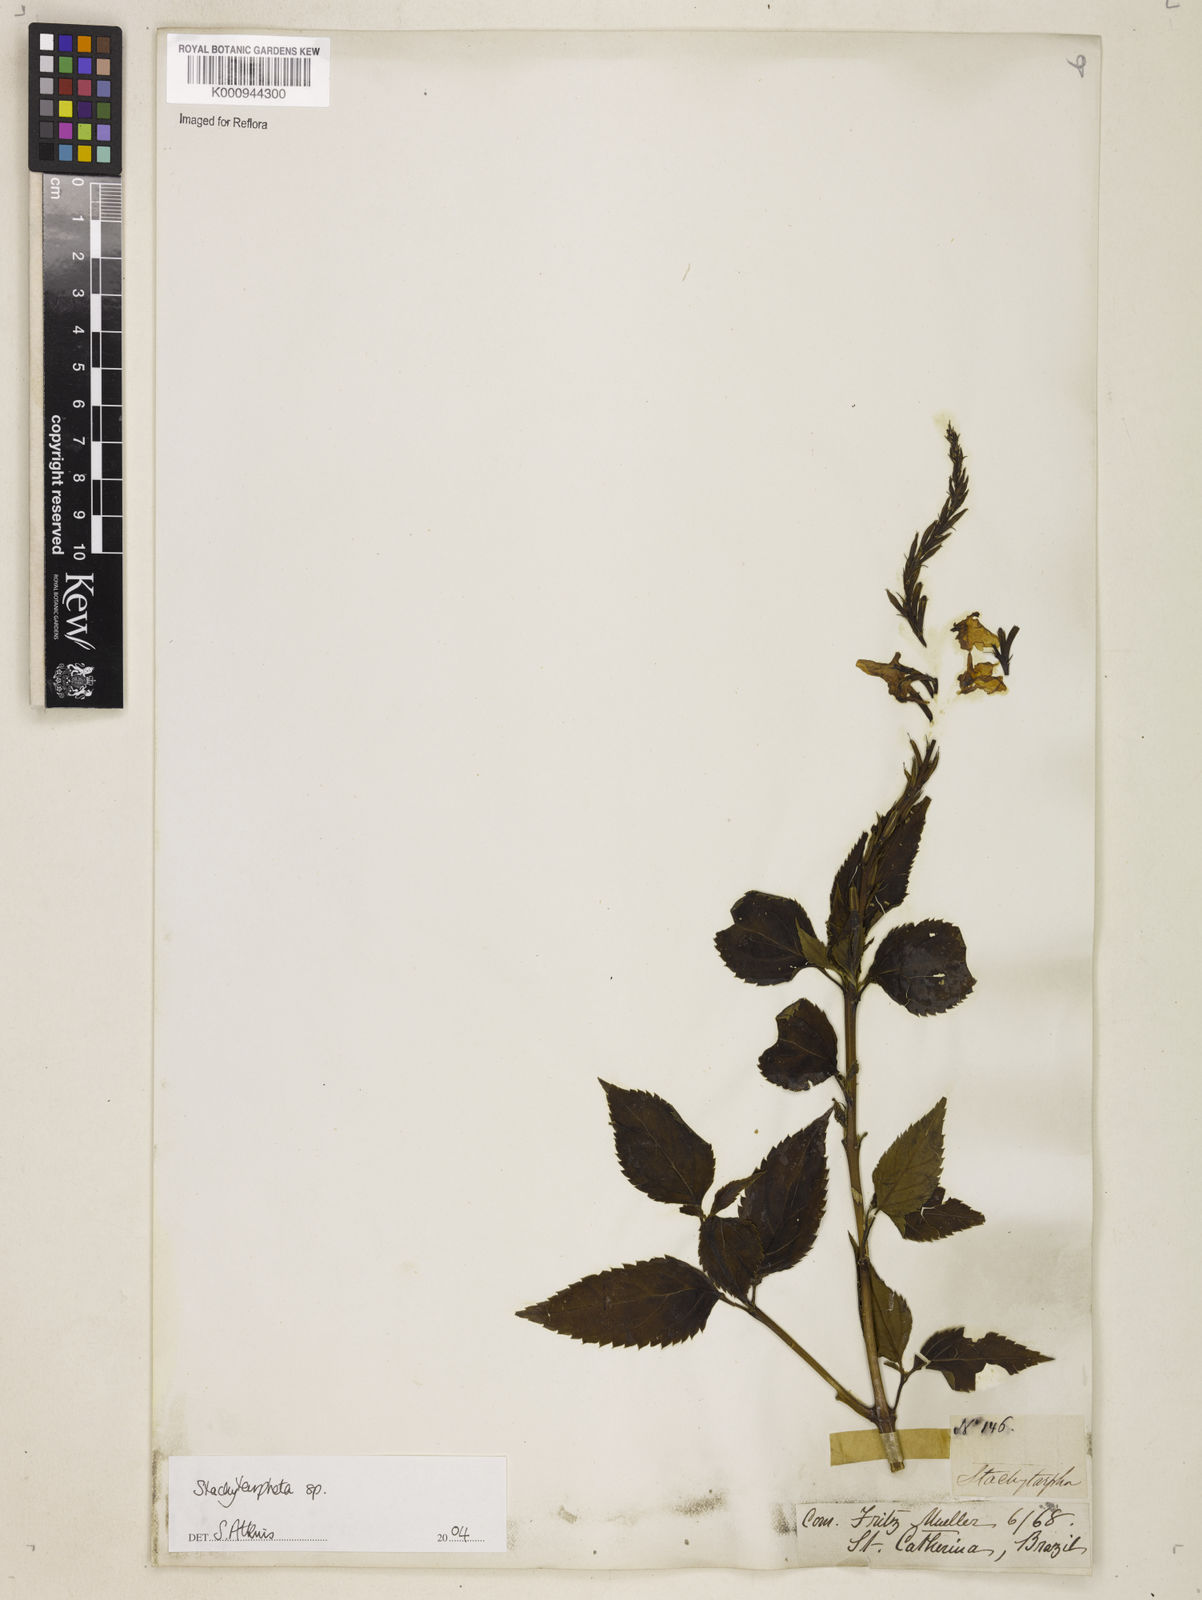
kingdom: Plantae
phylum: Tracheophyta
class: Magnoliopsida
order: Lamiales
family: Verbenaceae
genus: Stachytarpheta
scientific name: Stachytarpheta
